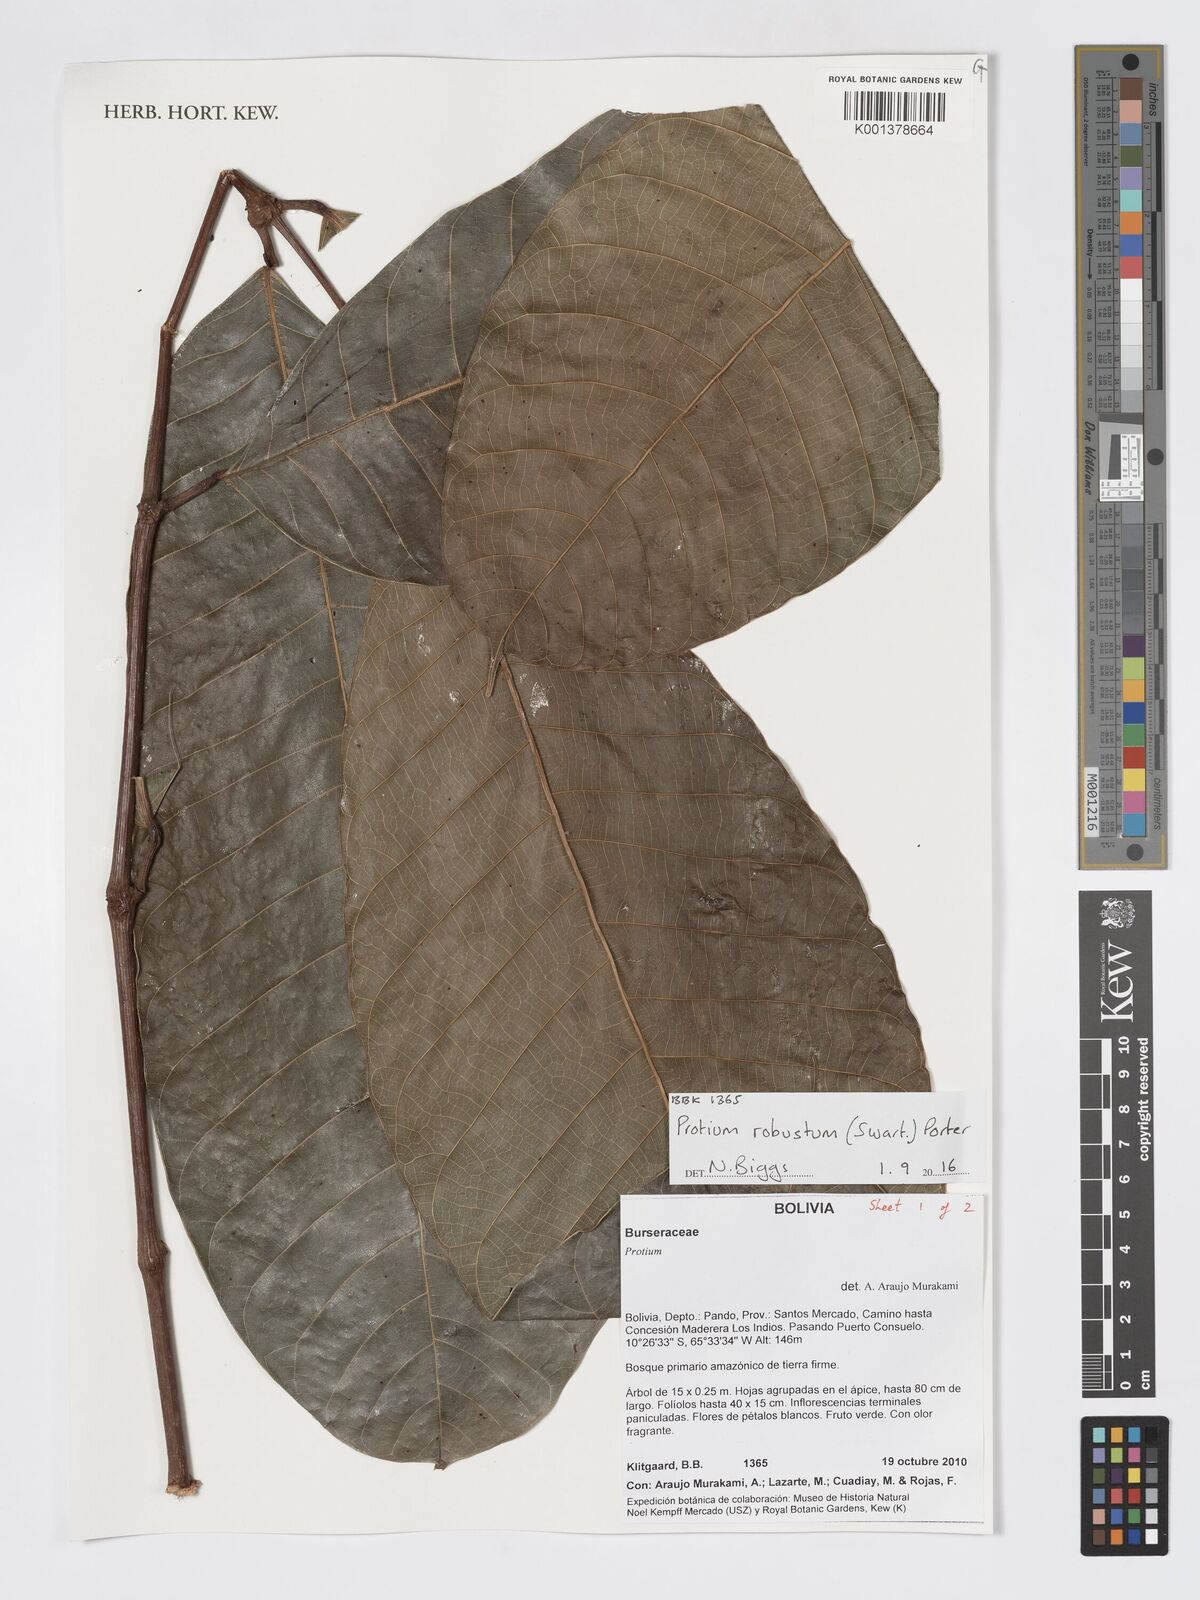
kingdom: Plantae
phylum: Tracheophyta
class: Magnoliopsida
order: Sapindales
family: Burseraceae
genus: Protium
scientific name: Protium robustum
